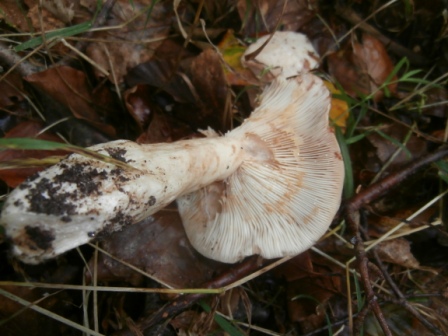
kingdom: Fungi
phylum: Basidiomycota
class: Agaricomycetes
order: Agaricales
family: Tricholomataceae
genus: Tricholoma
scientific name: Tricholoma lascivum
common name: stinkende ridderhat
